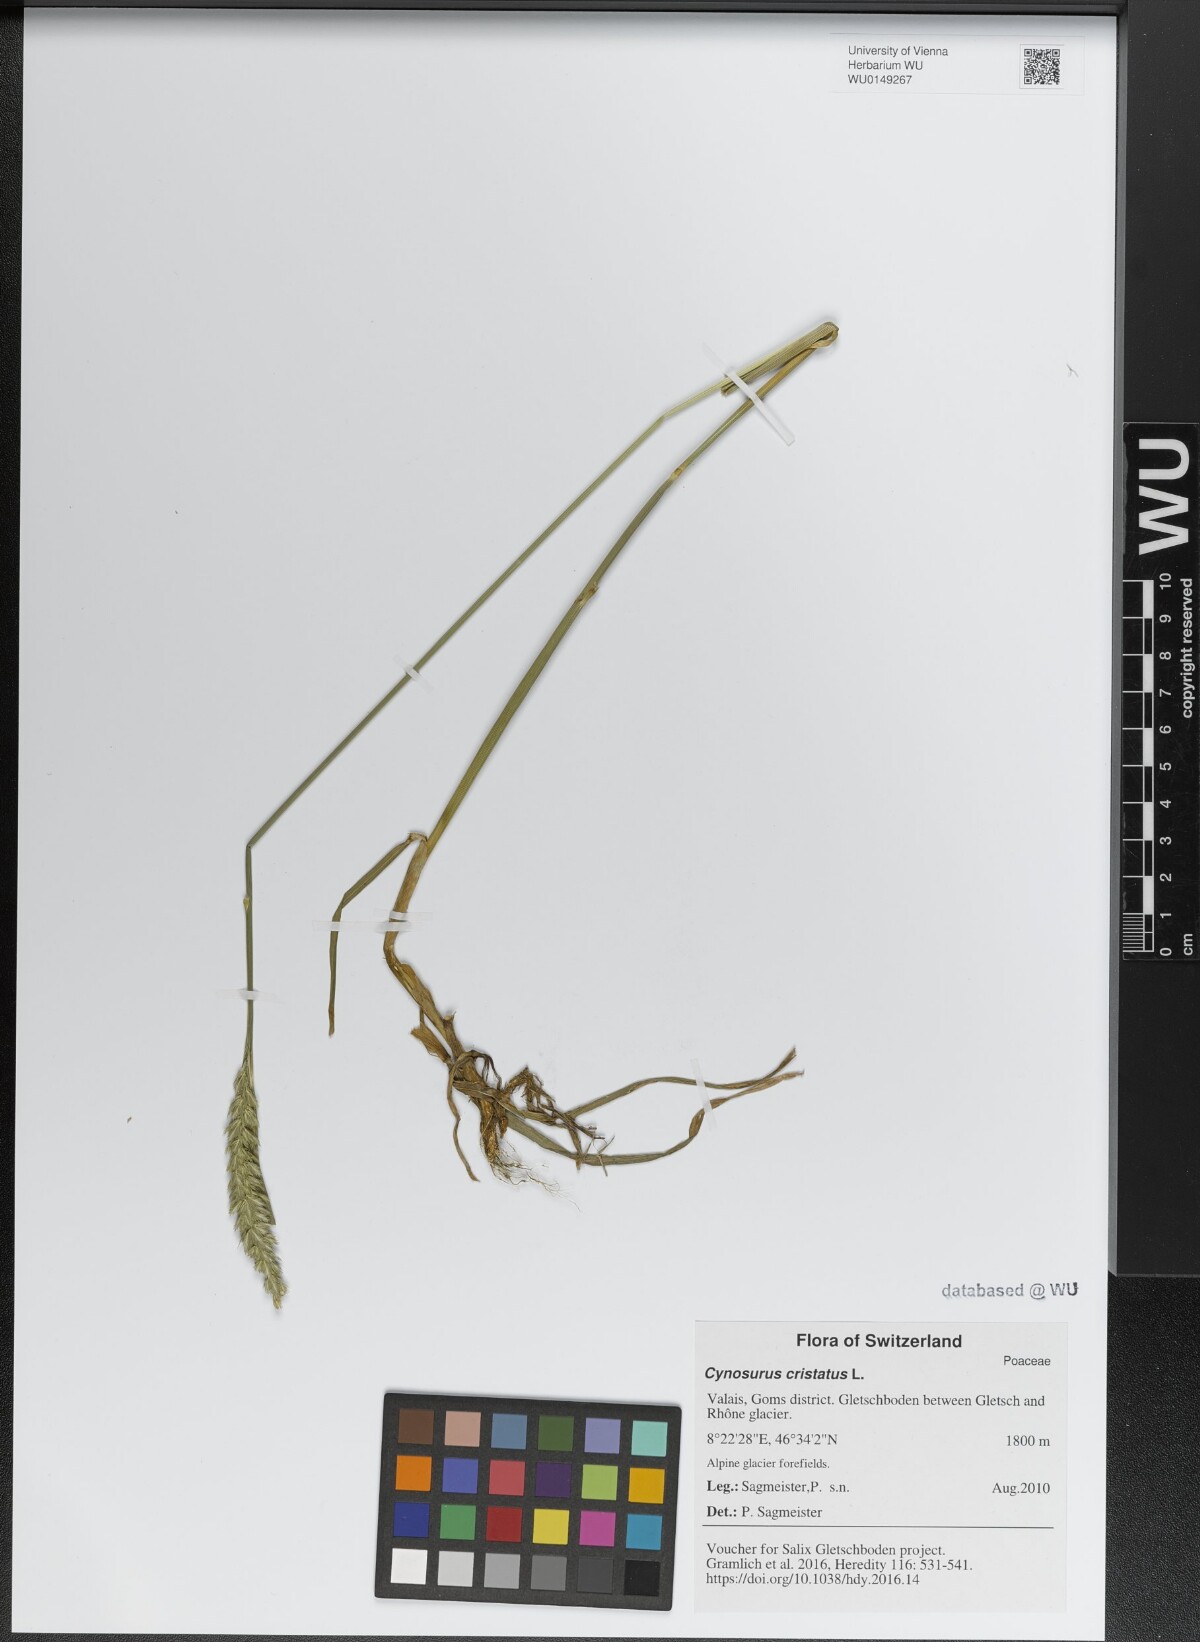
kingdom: Plantae
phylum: Tracheophyta
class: Liliopsida
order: Poales
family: Poaceae
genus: Cynosurus
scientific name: Cynosurus cristatus
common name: Crested dog's-tail
